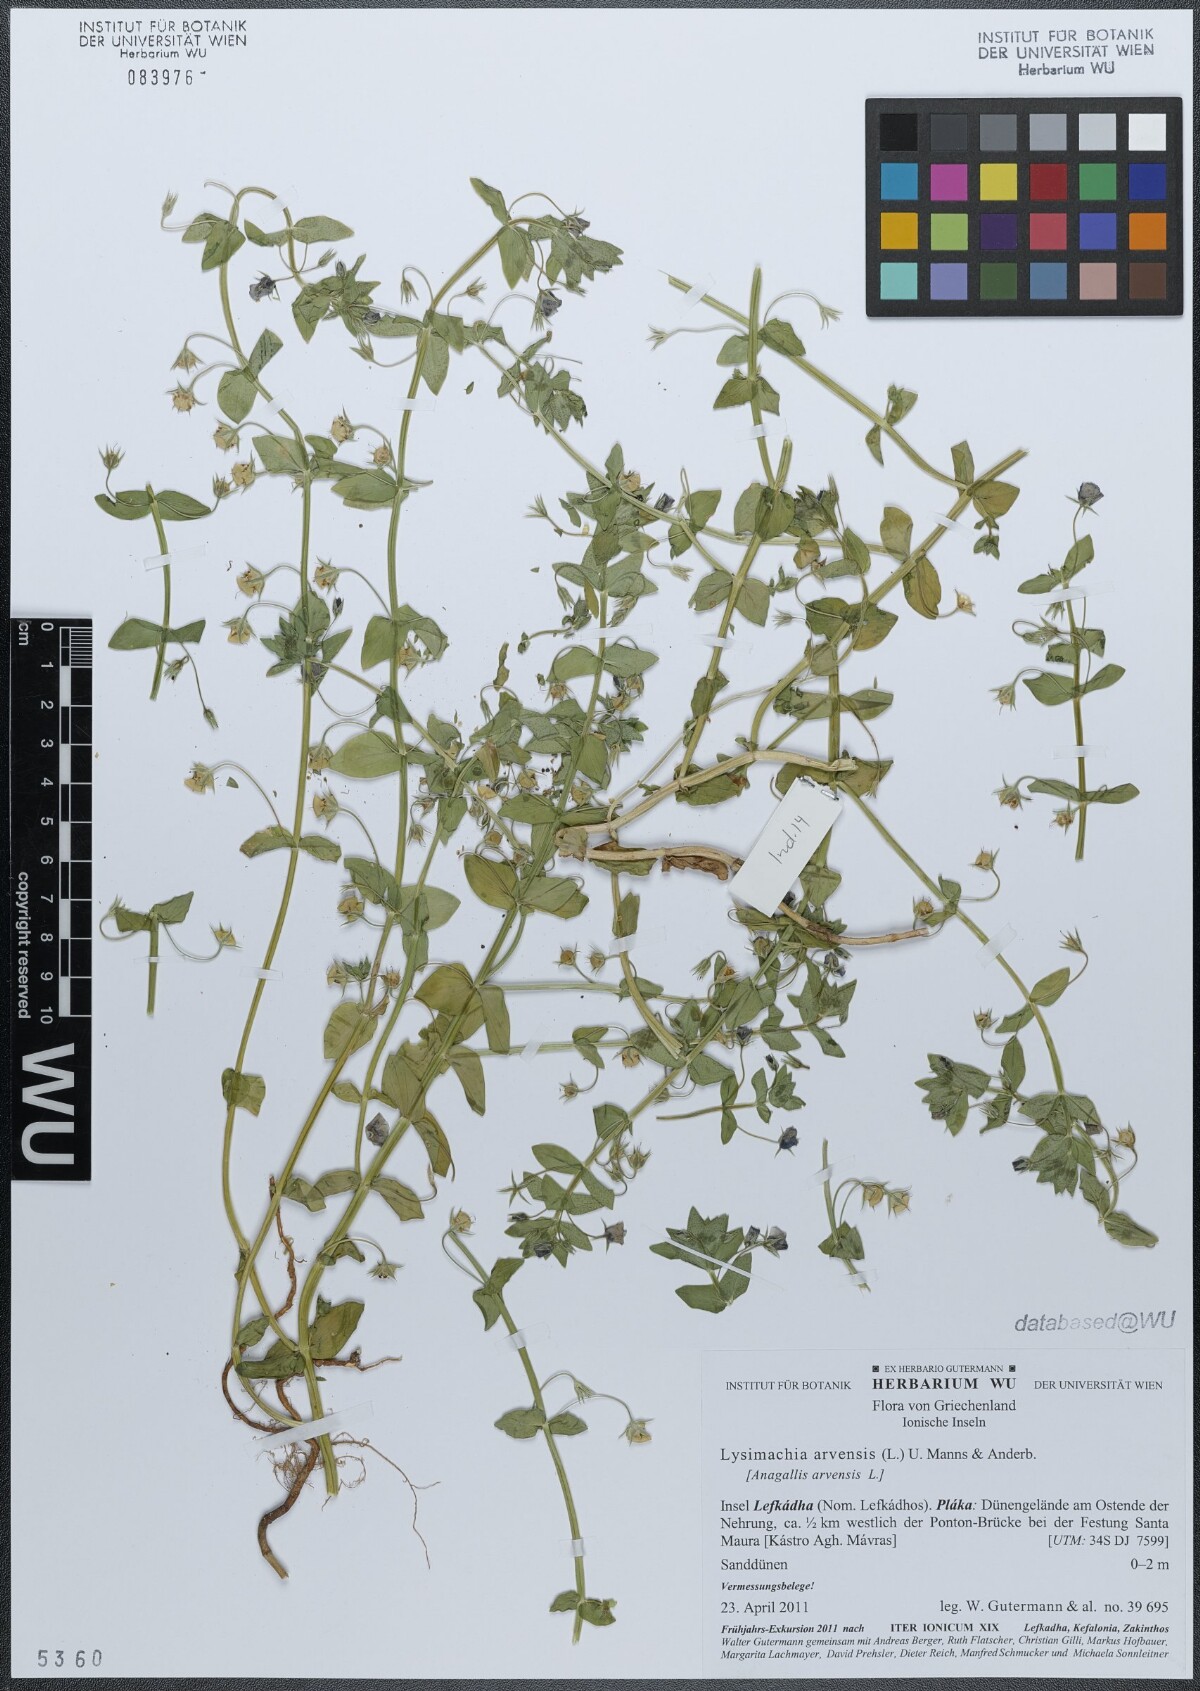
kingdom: Plantae
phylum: Tracheophyta
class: Magnoliopsida
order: Ericales
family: Primulaceae
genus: Lysimachia
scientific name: Lysimachia arvensis
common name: Scarlet pimpernel
